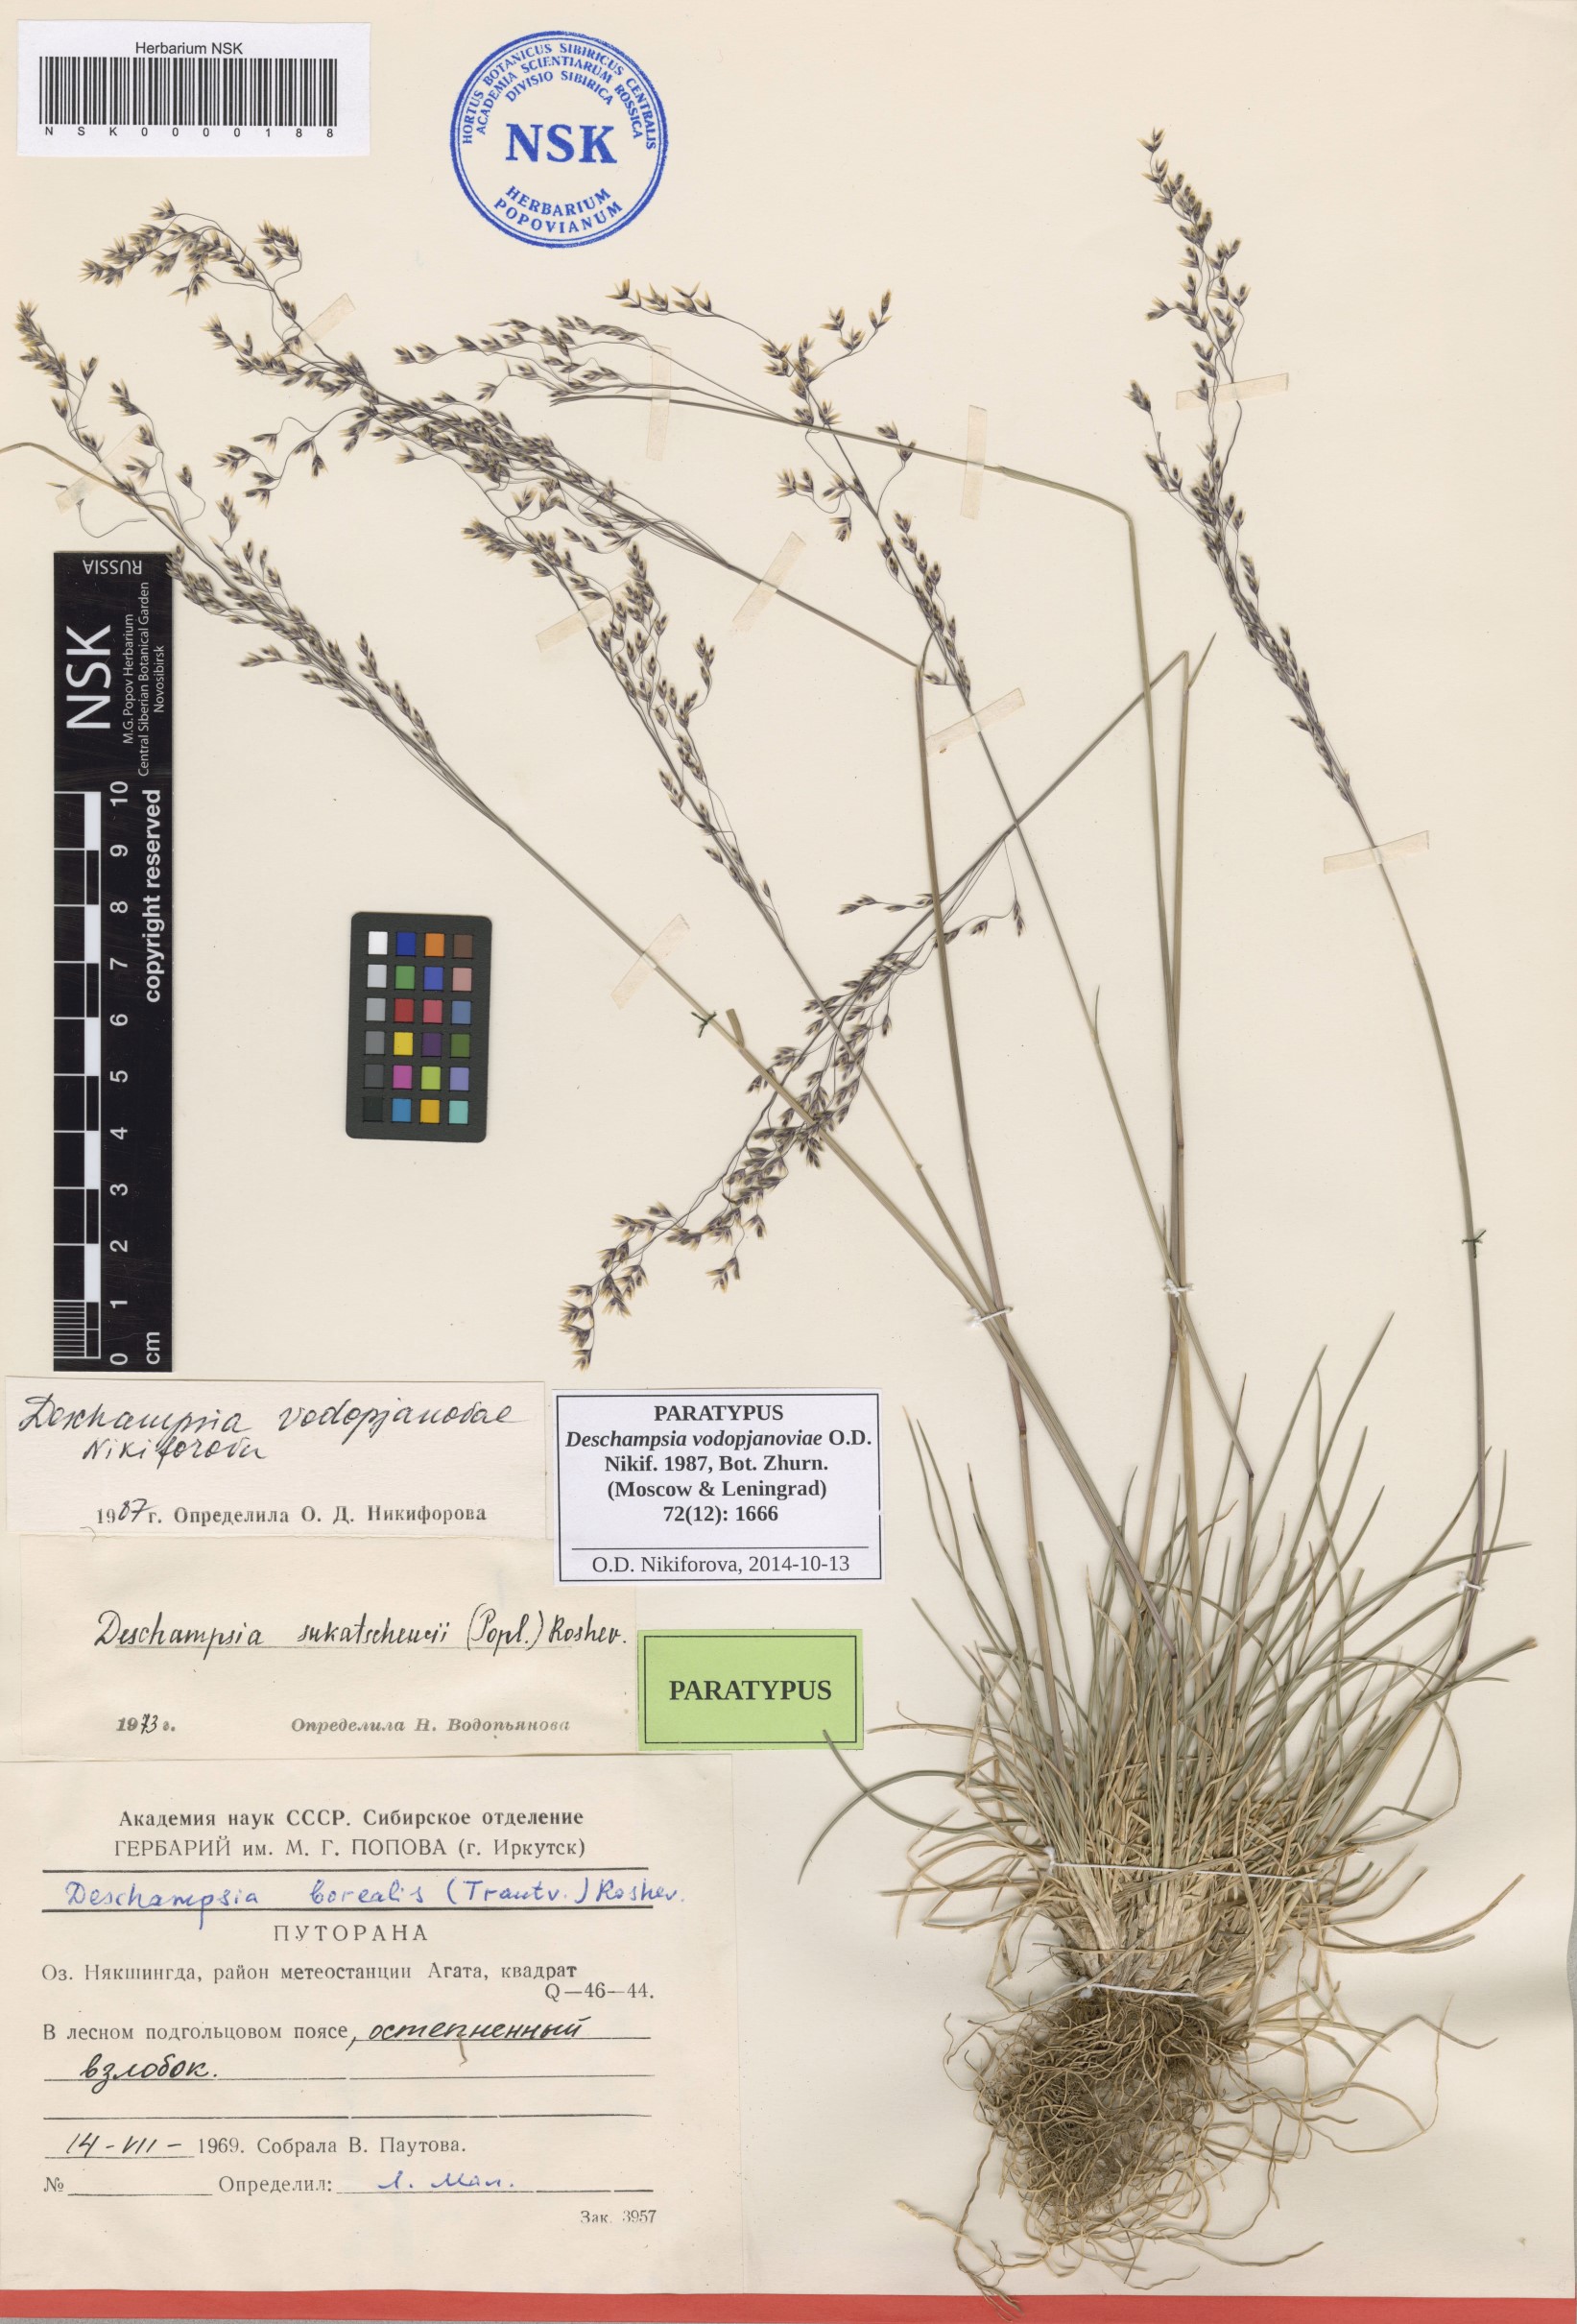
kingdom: Plantae
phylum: Tracheophyta
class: Liliopsida
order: Poales
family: Poaceae
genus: Deschampsia
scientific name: Deschampsia cespitosa
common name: Tufted hair-grass
